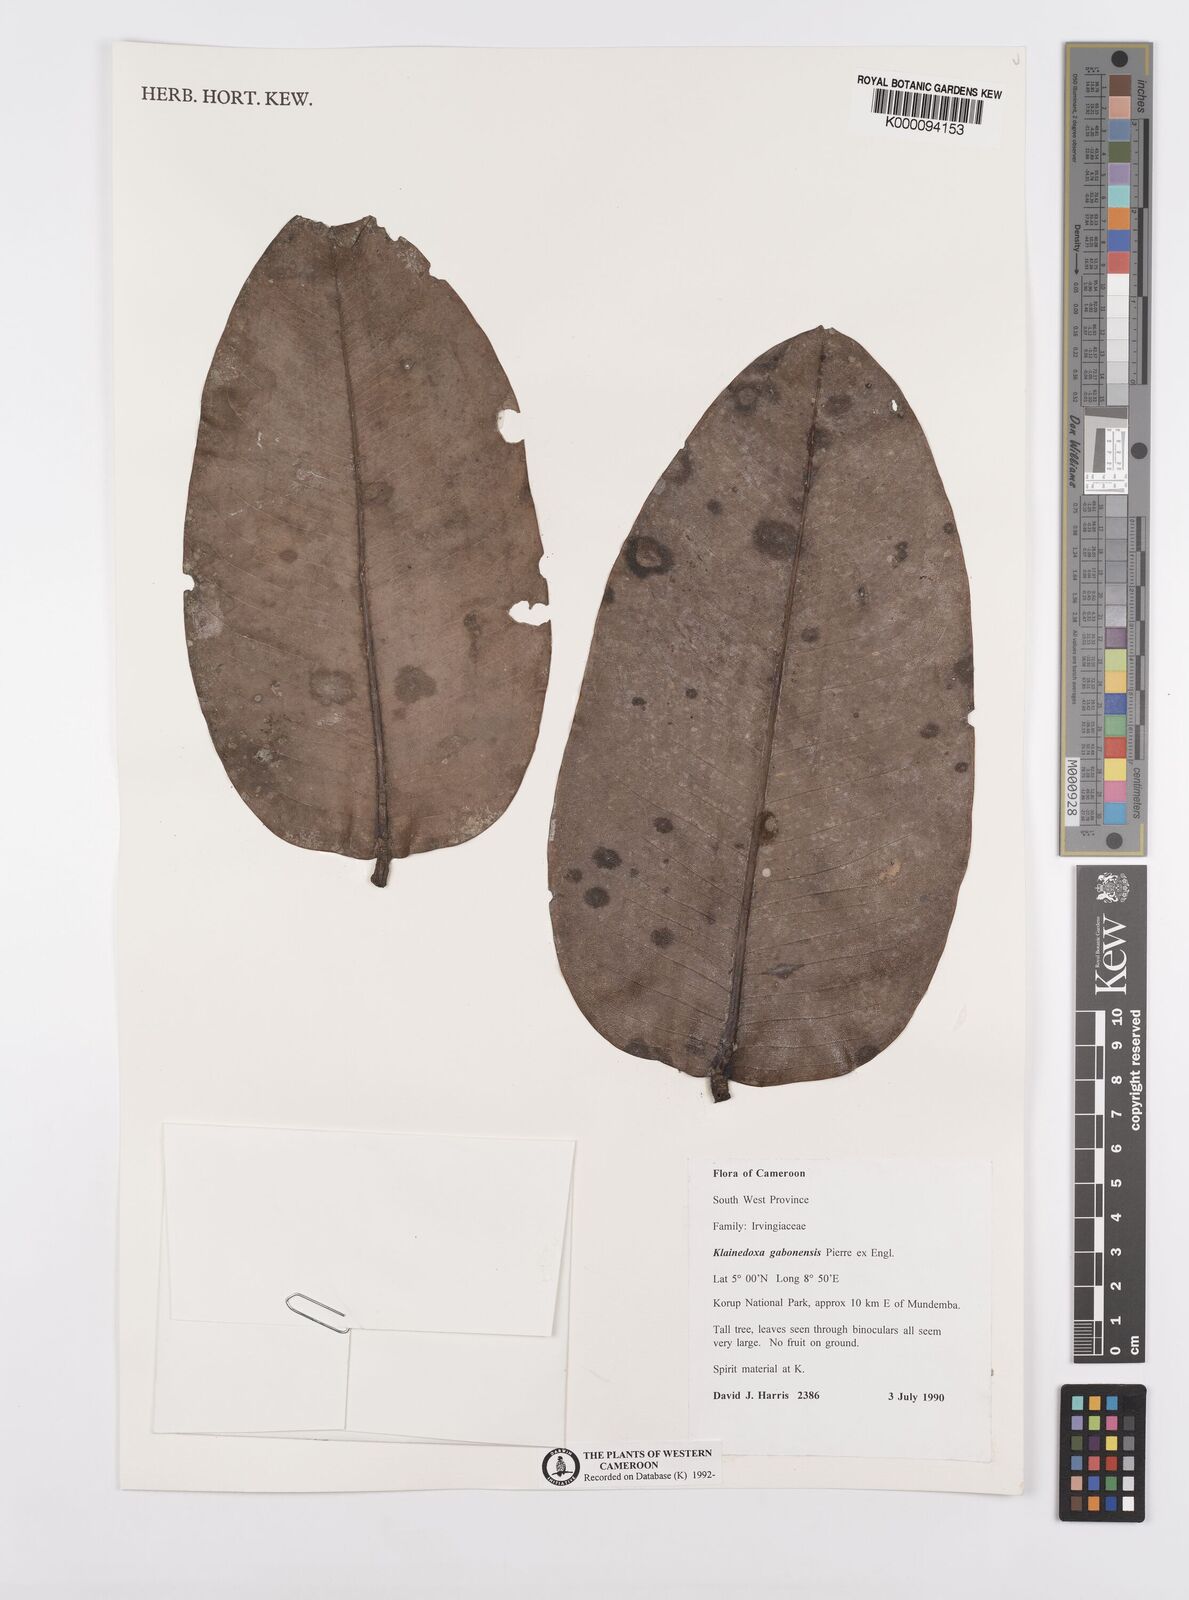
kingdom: Plantae
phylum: Tracheophyta
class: Magnoliopsida
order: Malpighiales
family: Irvingiaceae
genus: Klainedoxa
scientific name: Klainedoxa gabonensis
